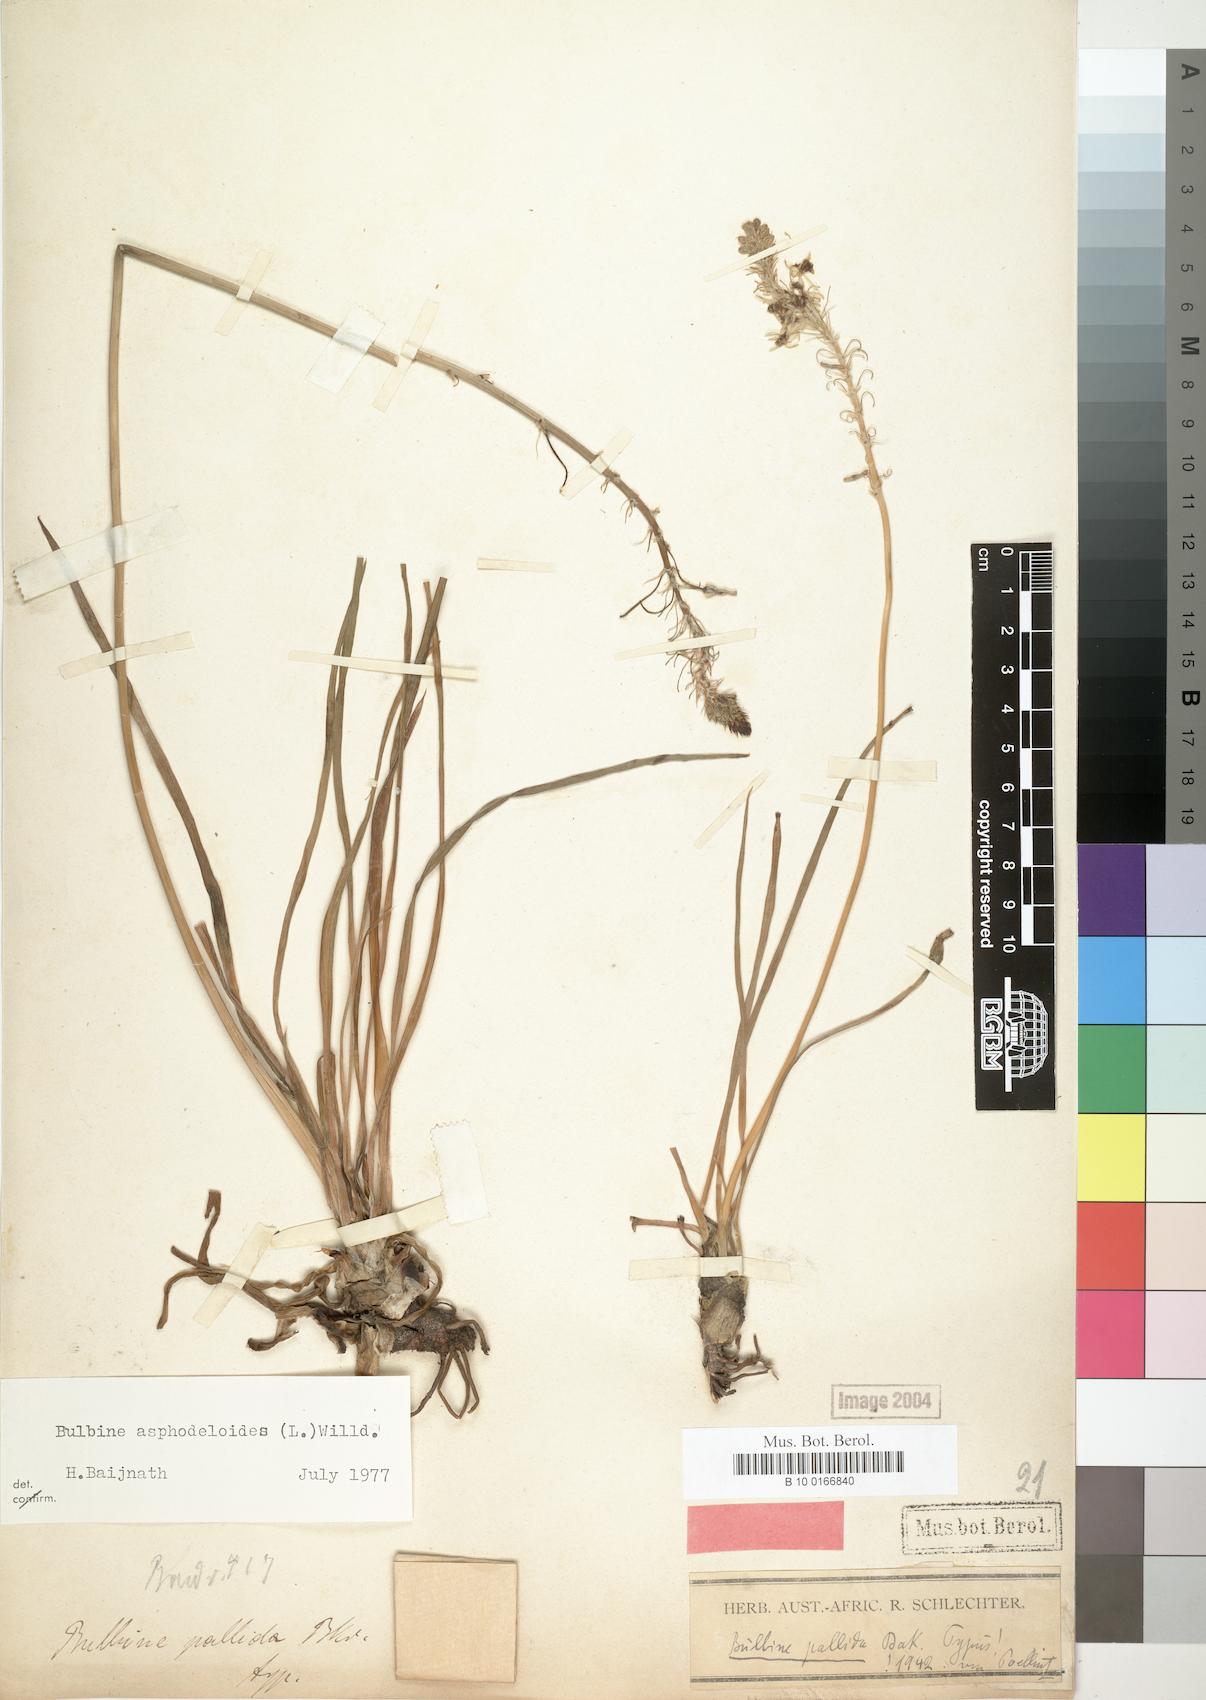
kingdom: Plantae
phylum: Tracheophyta
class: Liliopsida
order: Asparagales
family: Asphodelaceae
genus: Bulbine
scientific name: Bulbine asphodeloides
